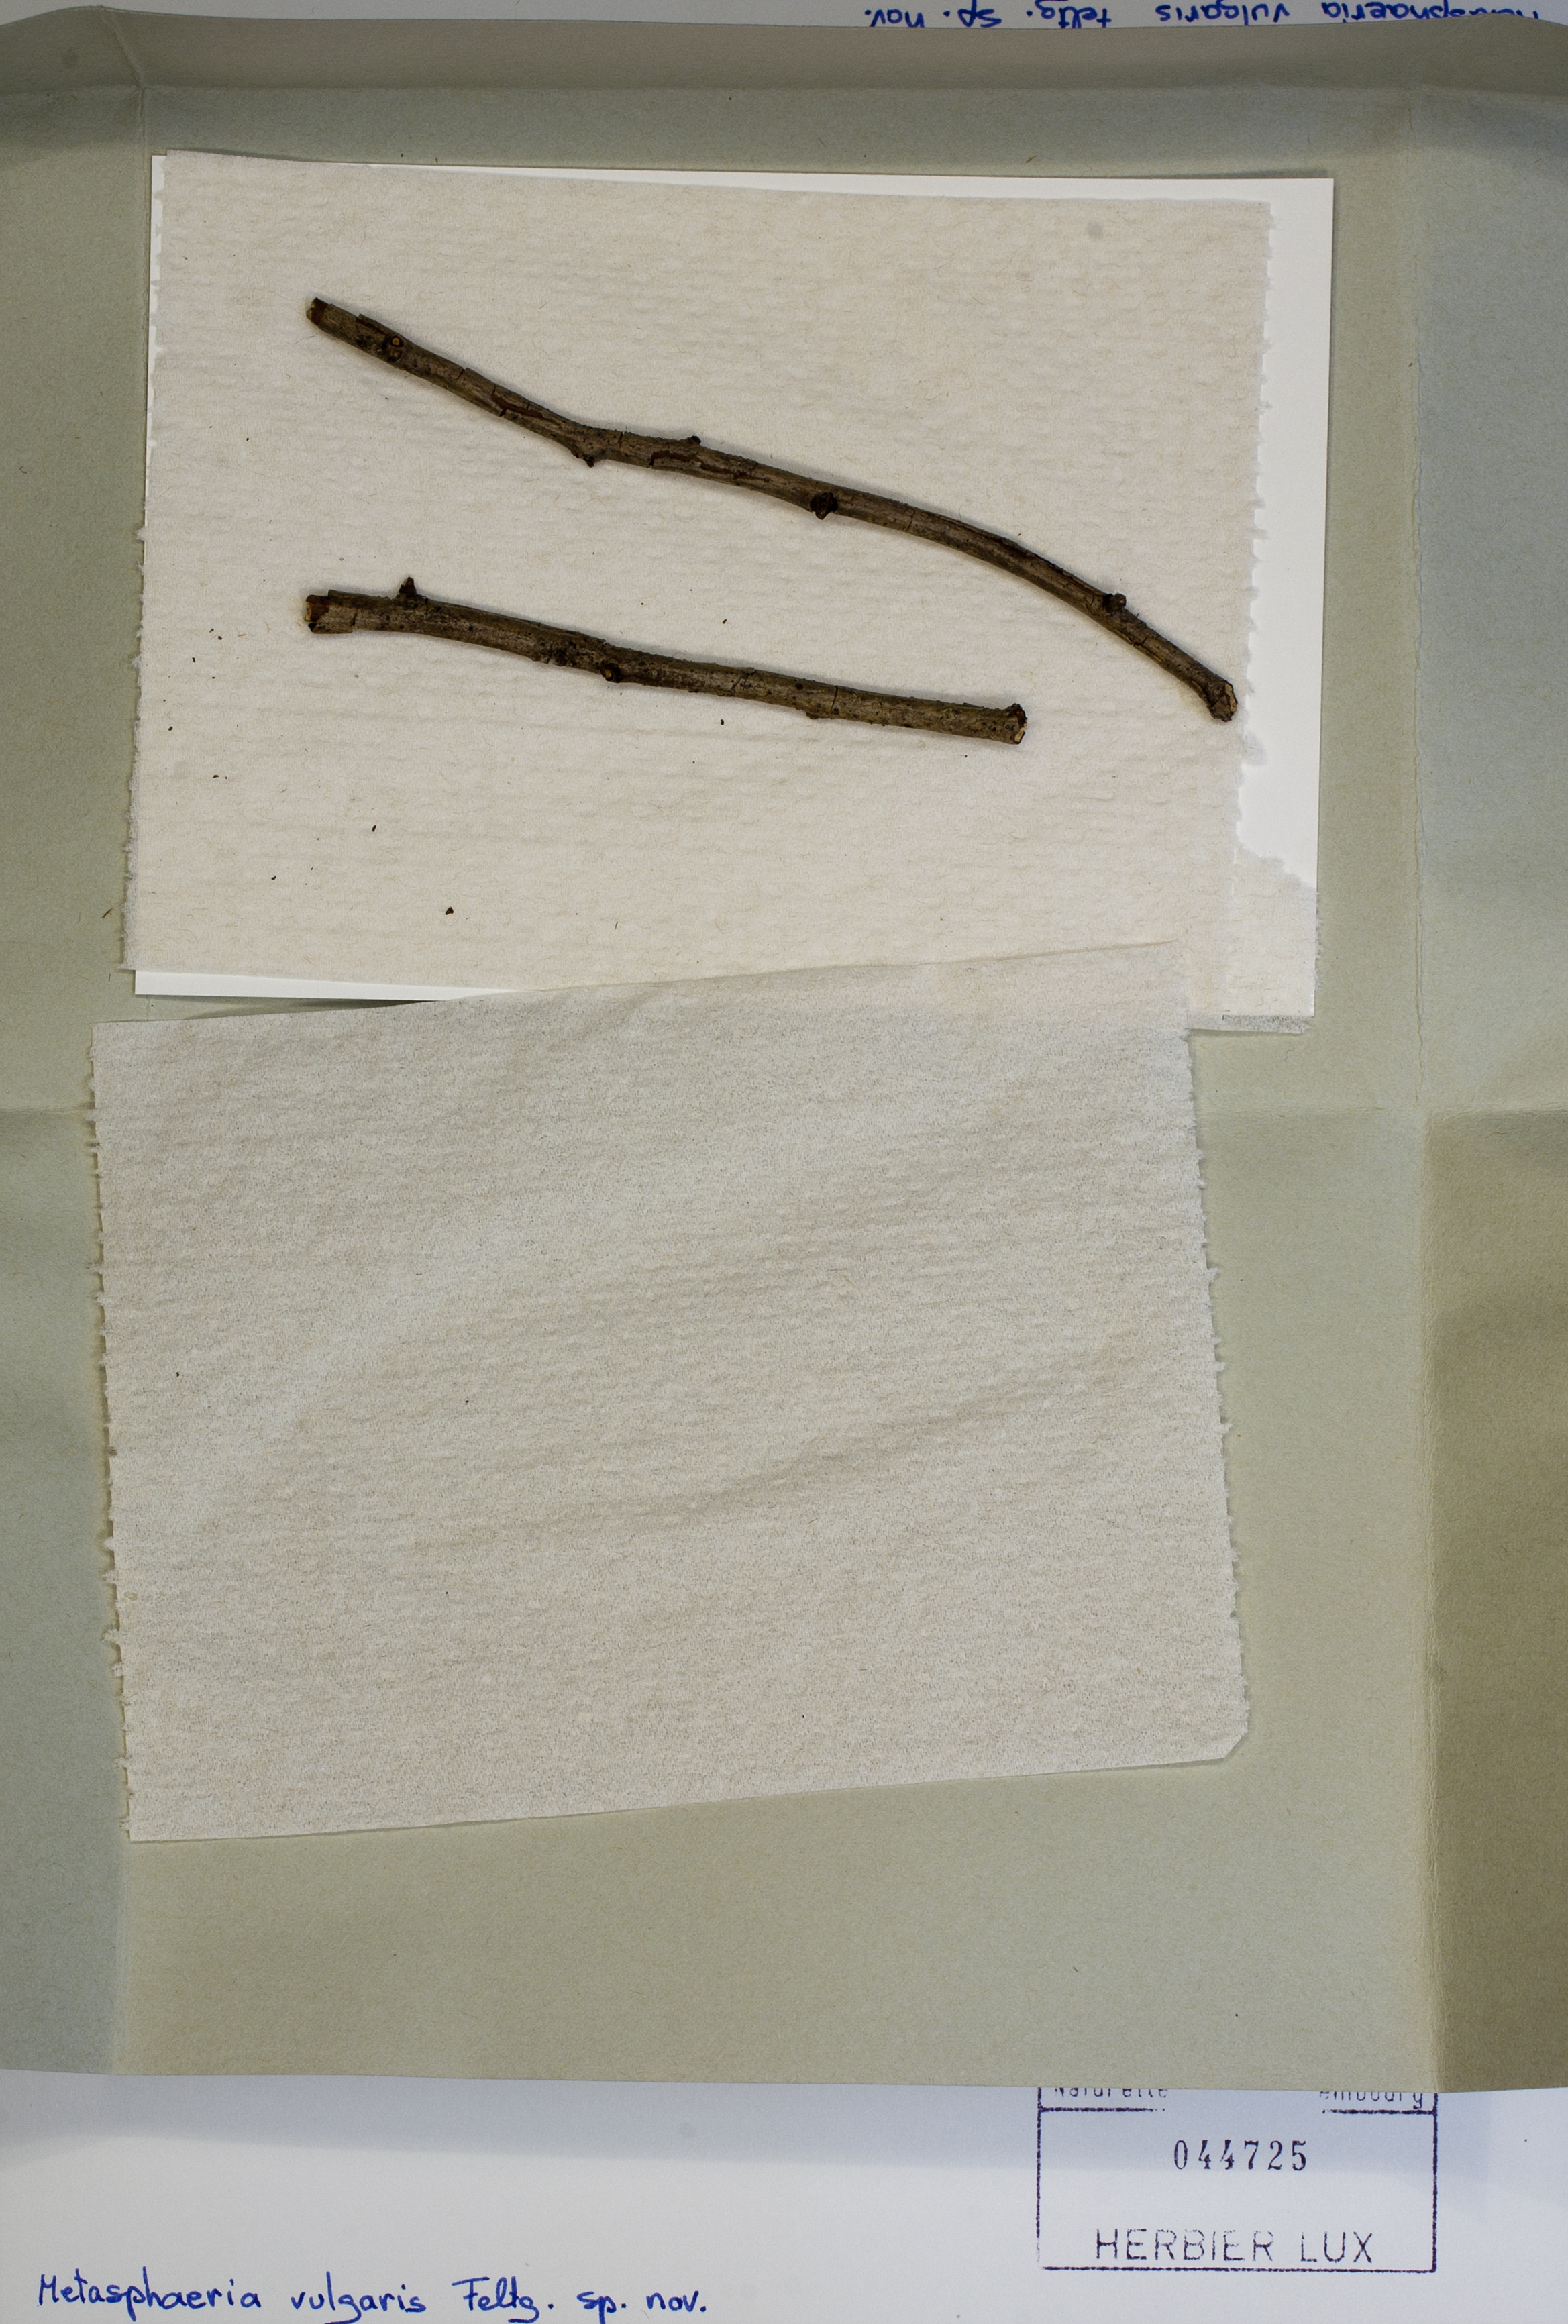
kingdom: Fungi
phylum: Ascomycota
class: Dothideomycetes
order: Dothideales
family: Saccotheciaceae
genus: Metasphaeria
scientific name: Metasphaeria vulgaris
